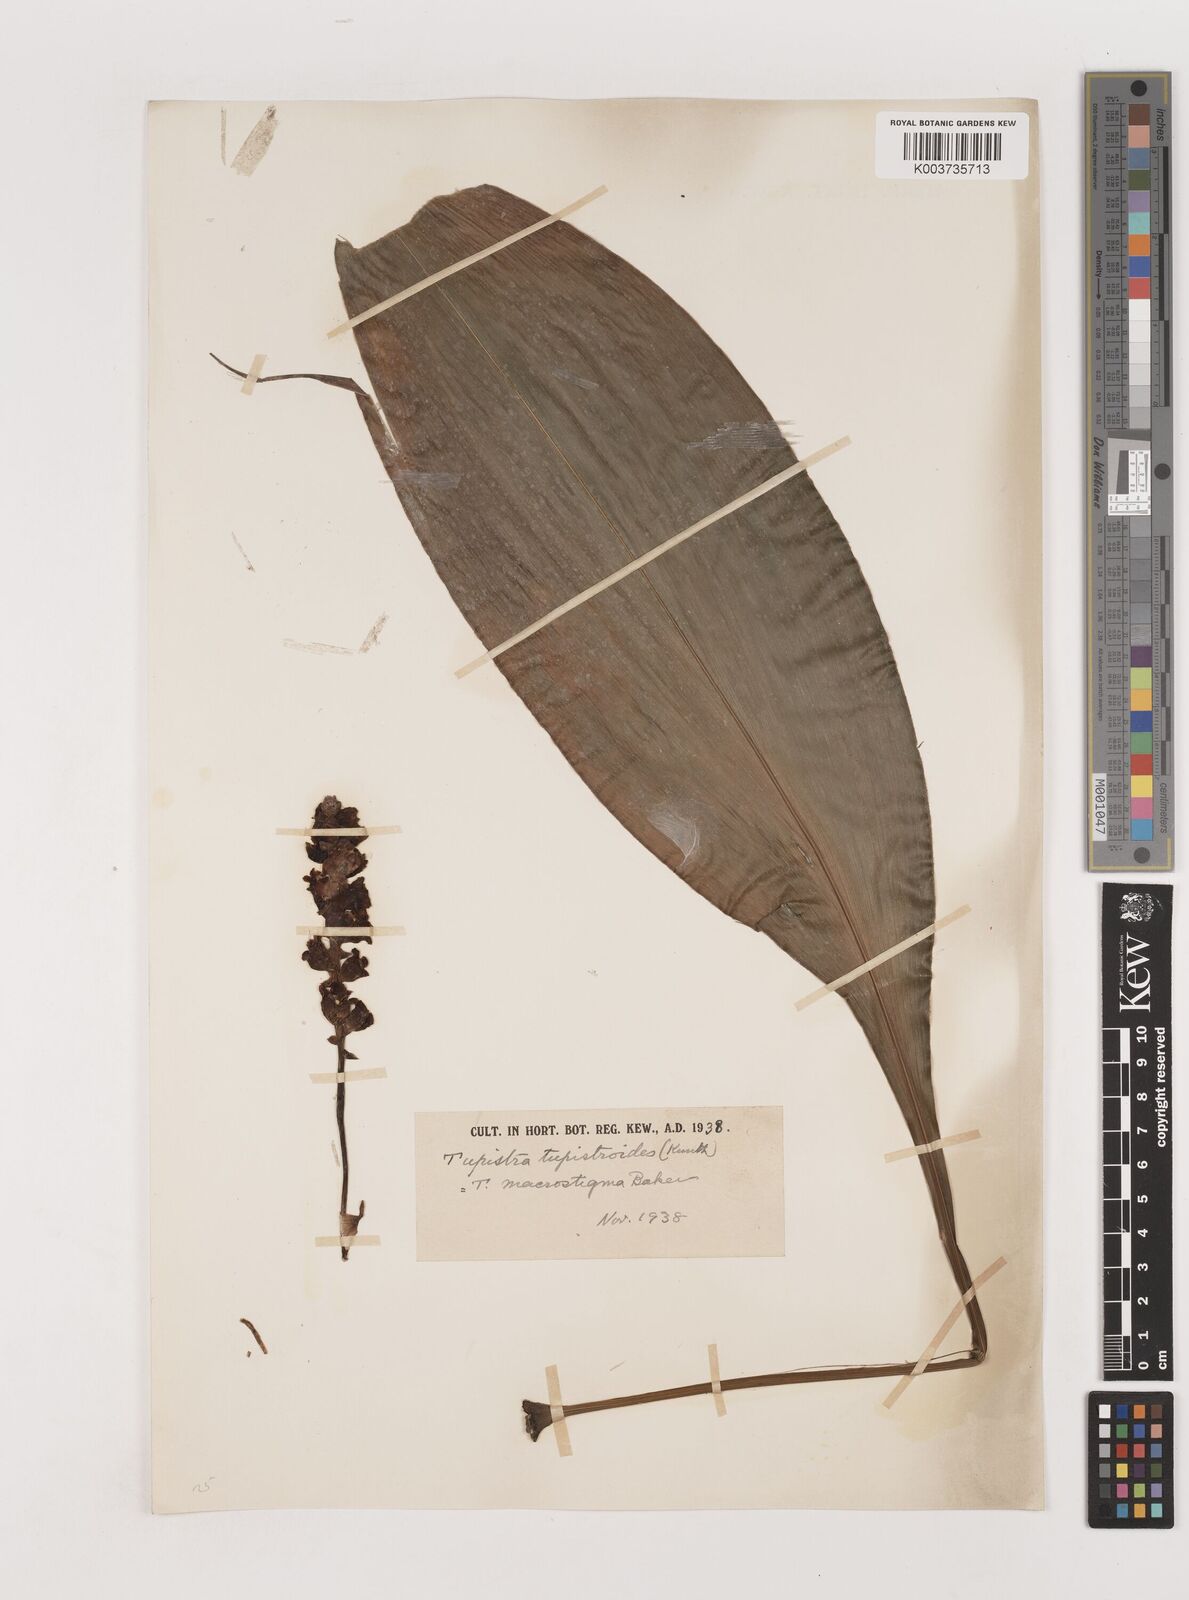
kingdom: Plantae
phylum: Tracheophyta
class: Liliopsida
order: Asparagales
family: Asparagaceae
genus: Tupistra
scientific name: Tupistra tupistroides
